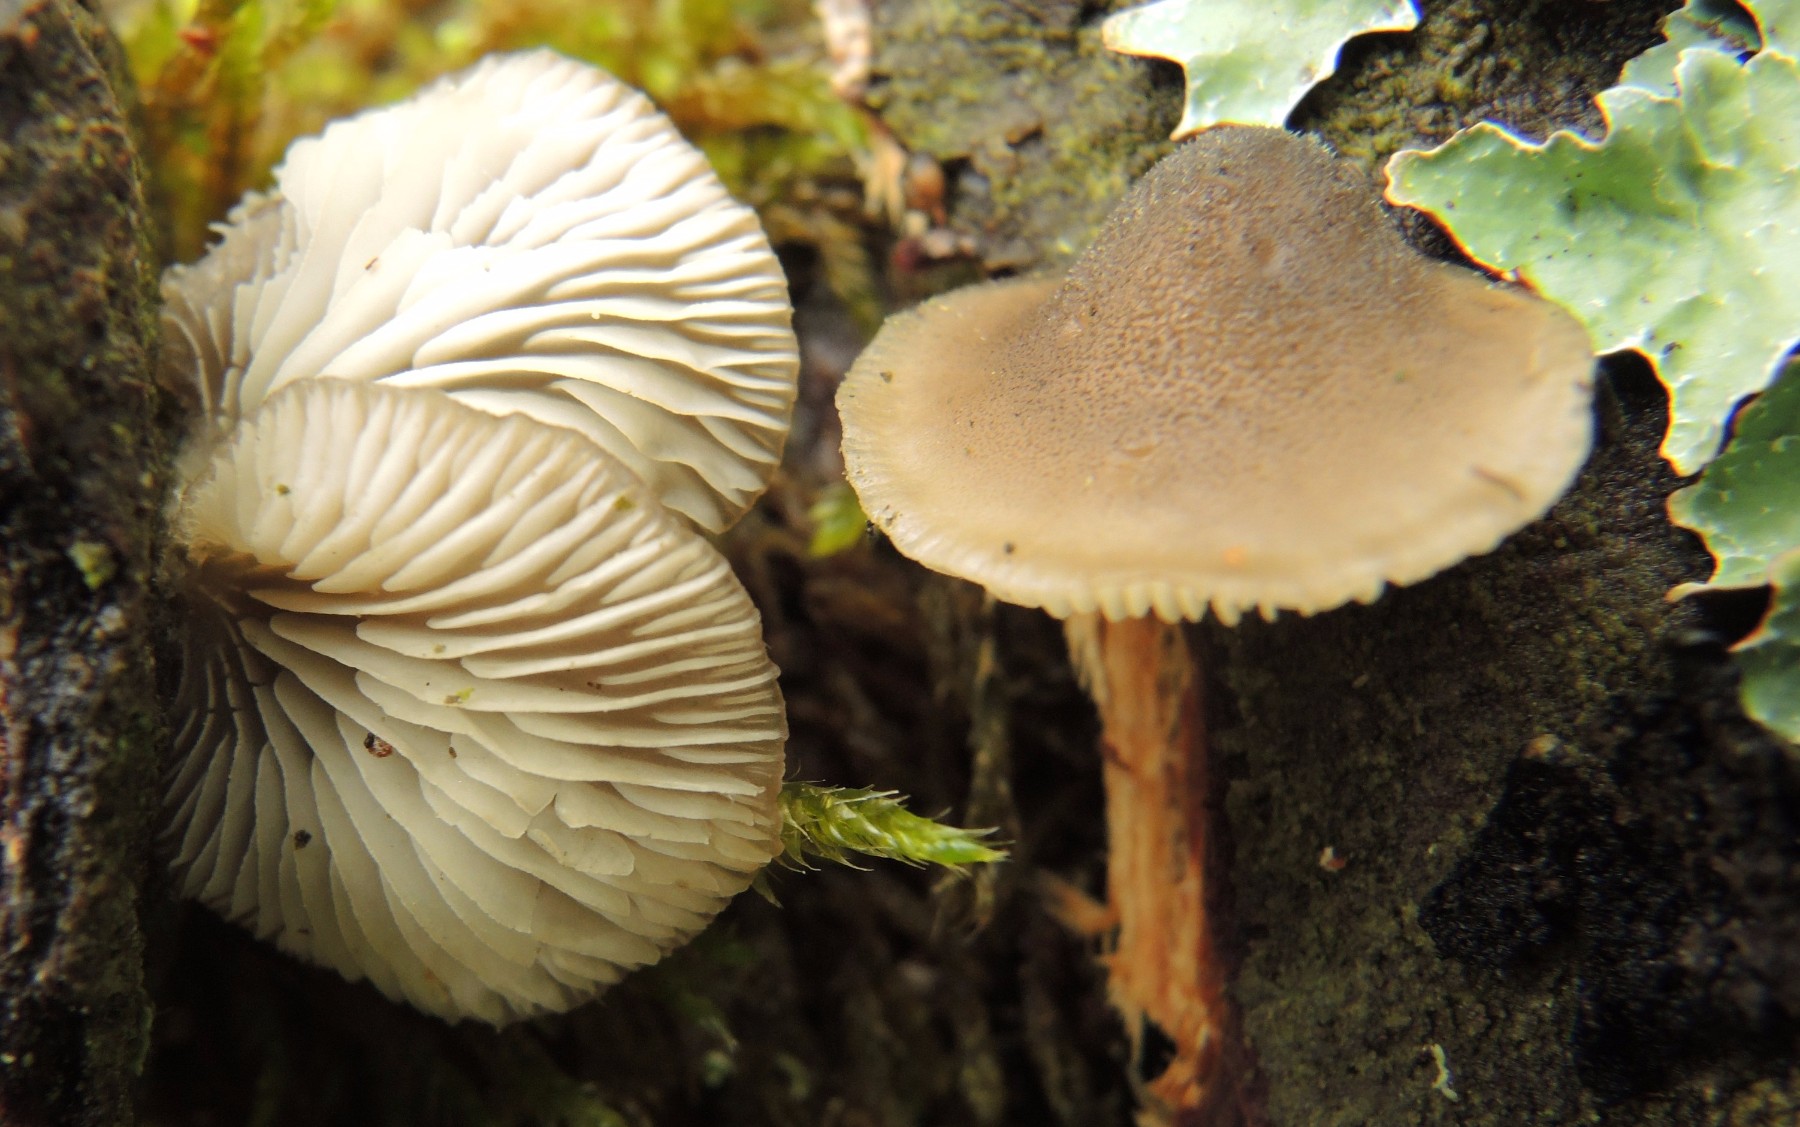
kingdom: Fungi
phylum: Basidiomycota
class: Agaricomycetes
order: Agaricales
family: Pleurotaceae
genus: Hohenbuehelia
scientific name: Hohenbuehelia fluxilis
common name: pile-filthat
